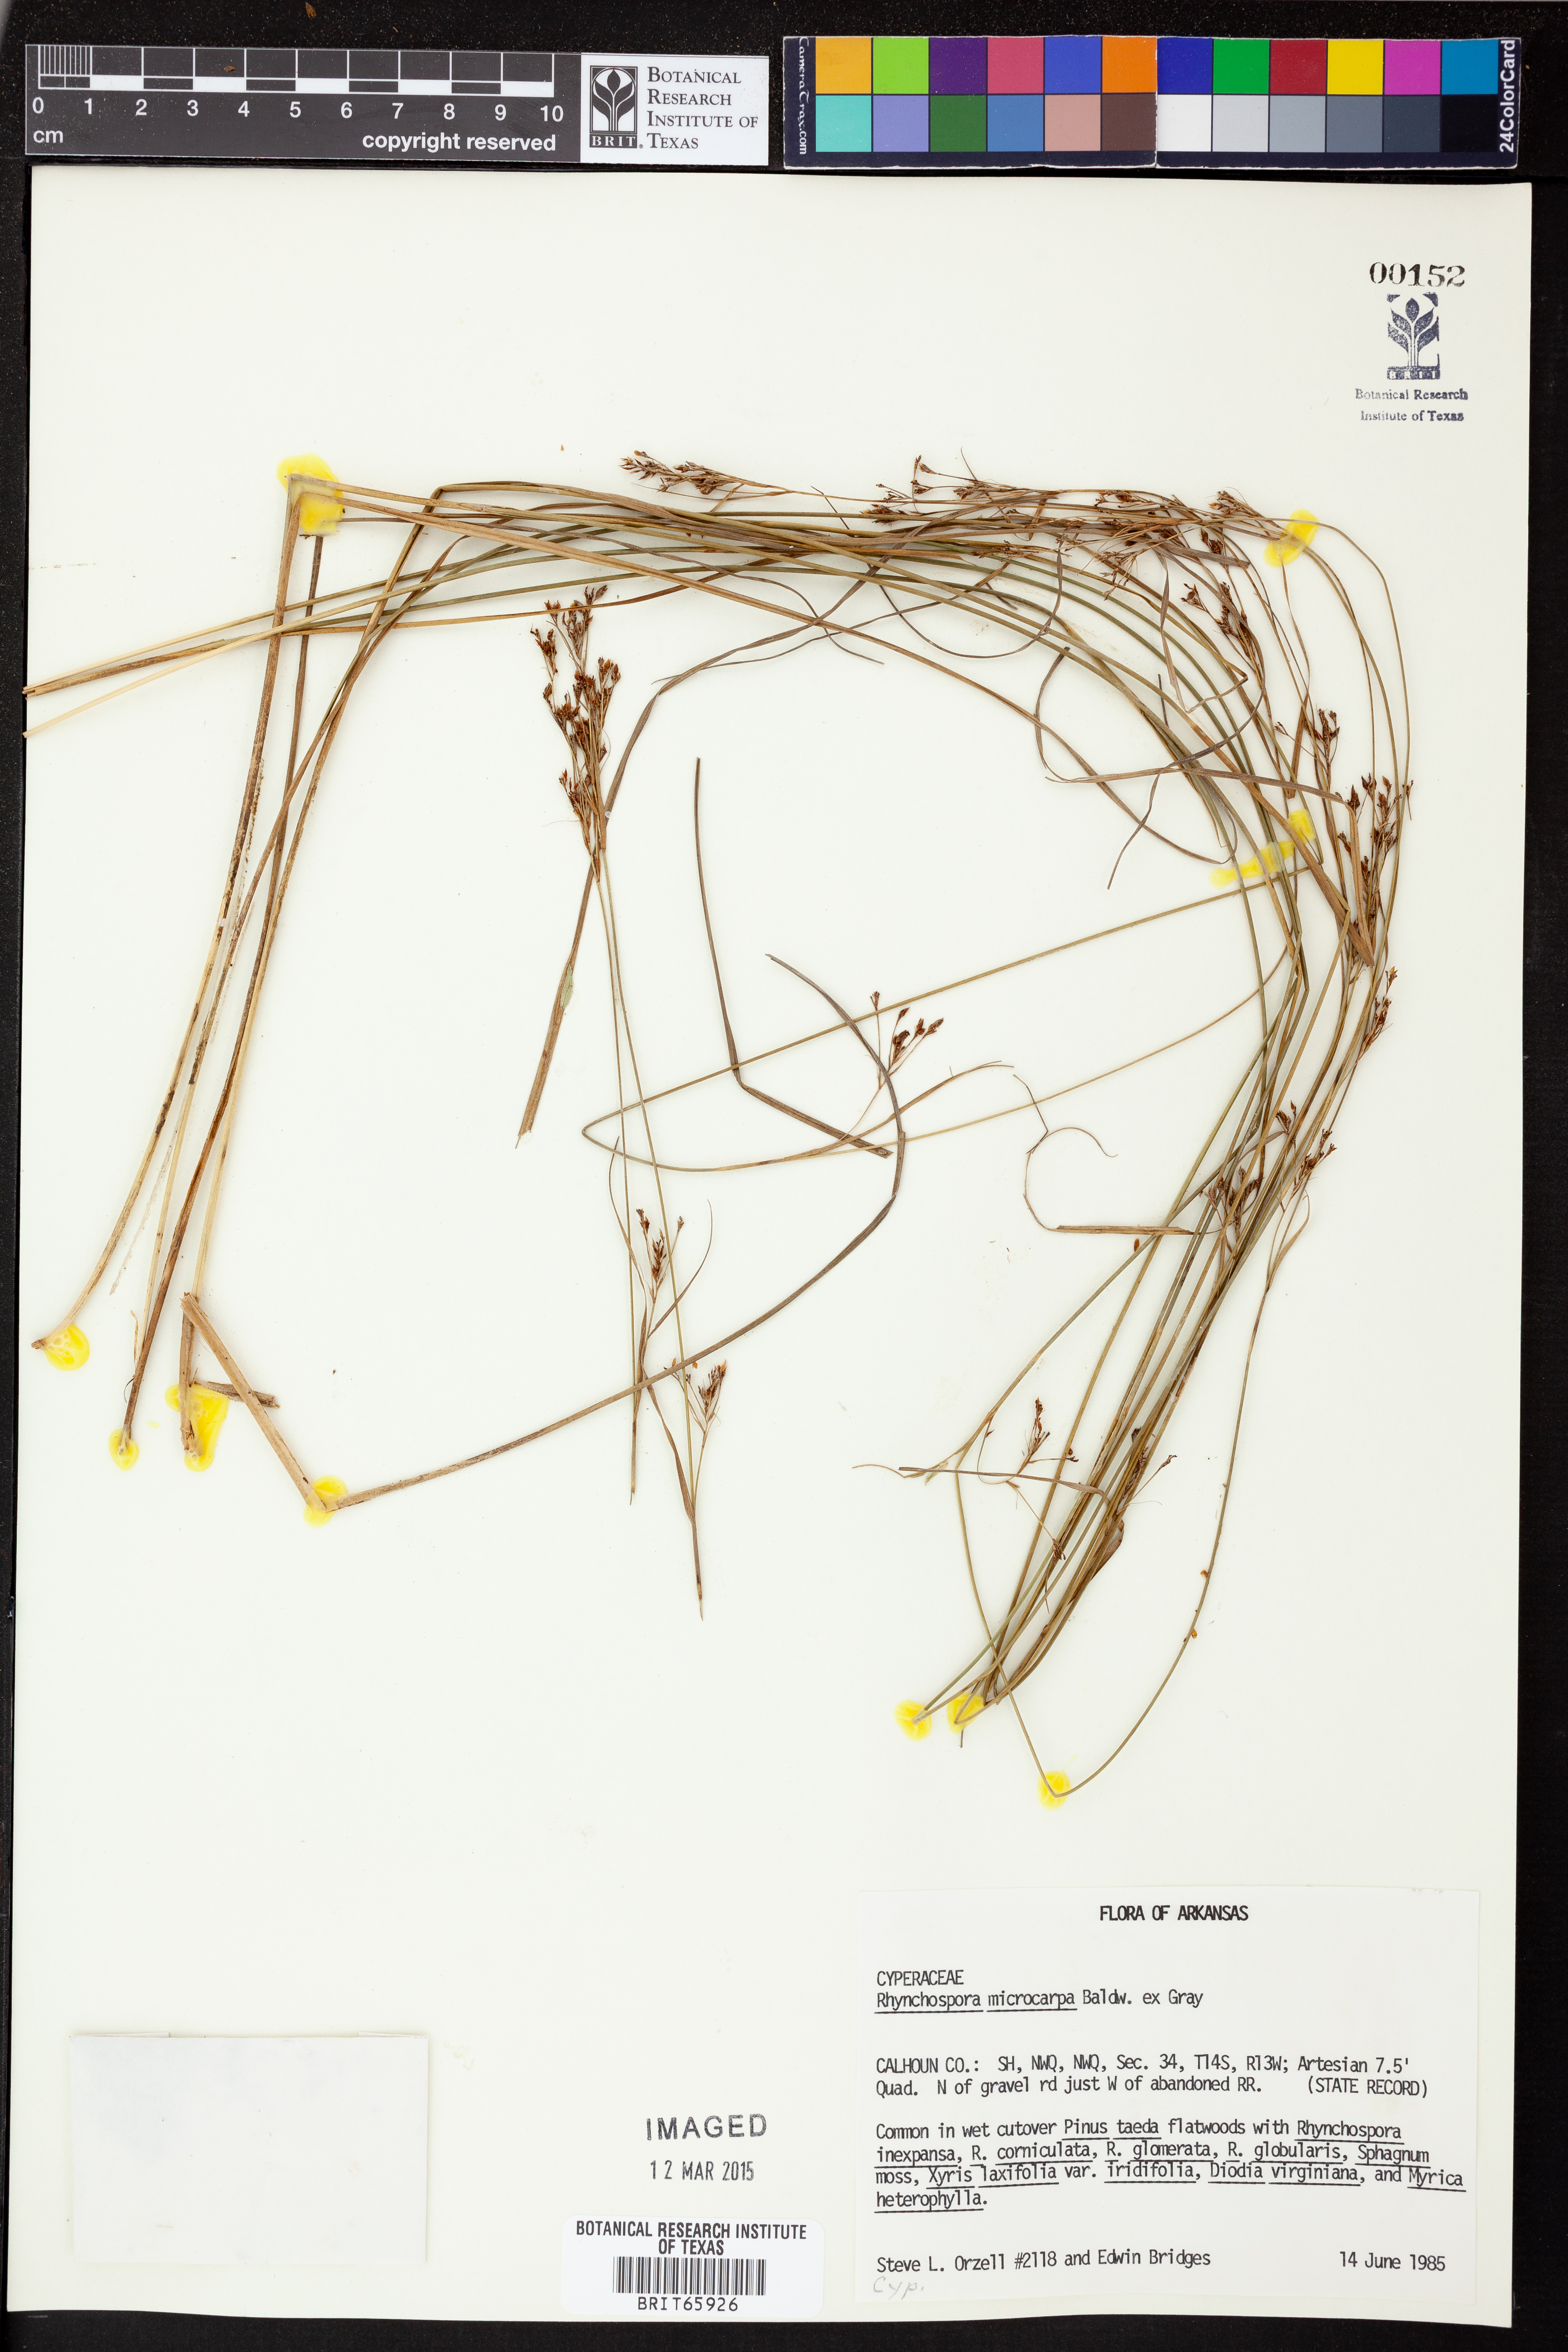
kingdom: Plantae
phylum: Tracheophyta
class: Liliopsida
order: Poales
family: Cyperaceae
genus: Rhynchospora
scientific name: Rhynchospora microcarpa
